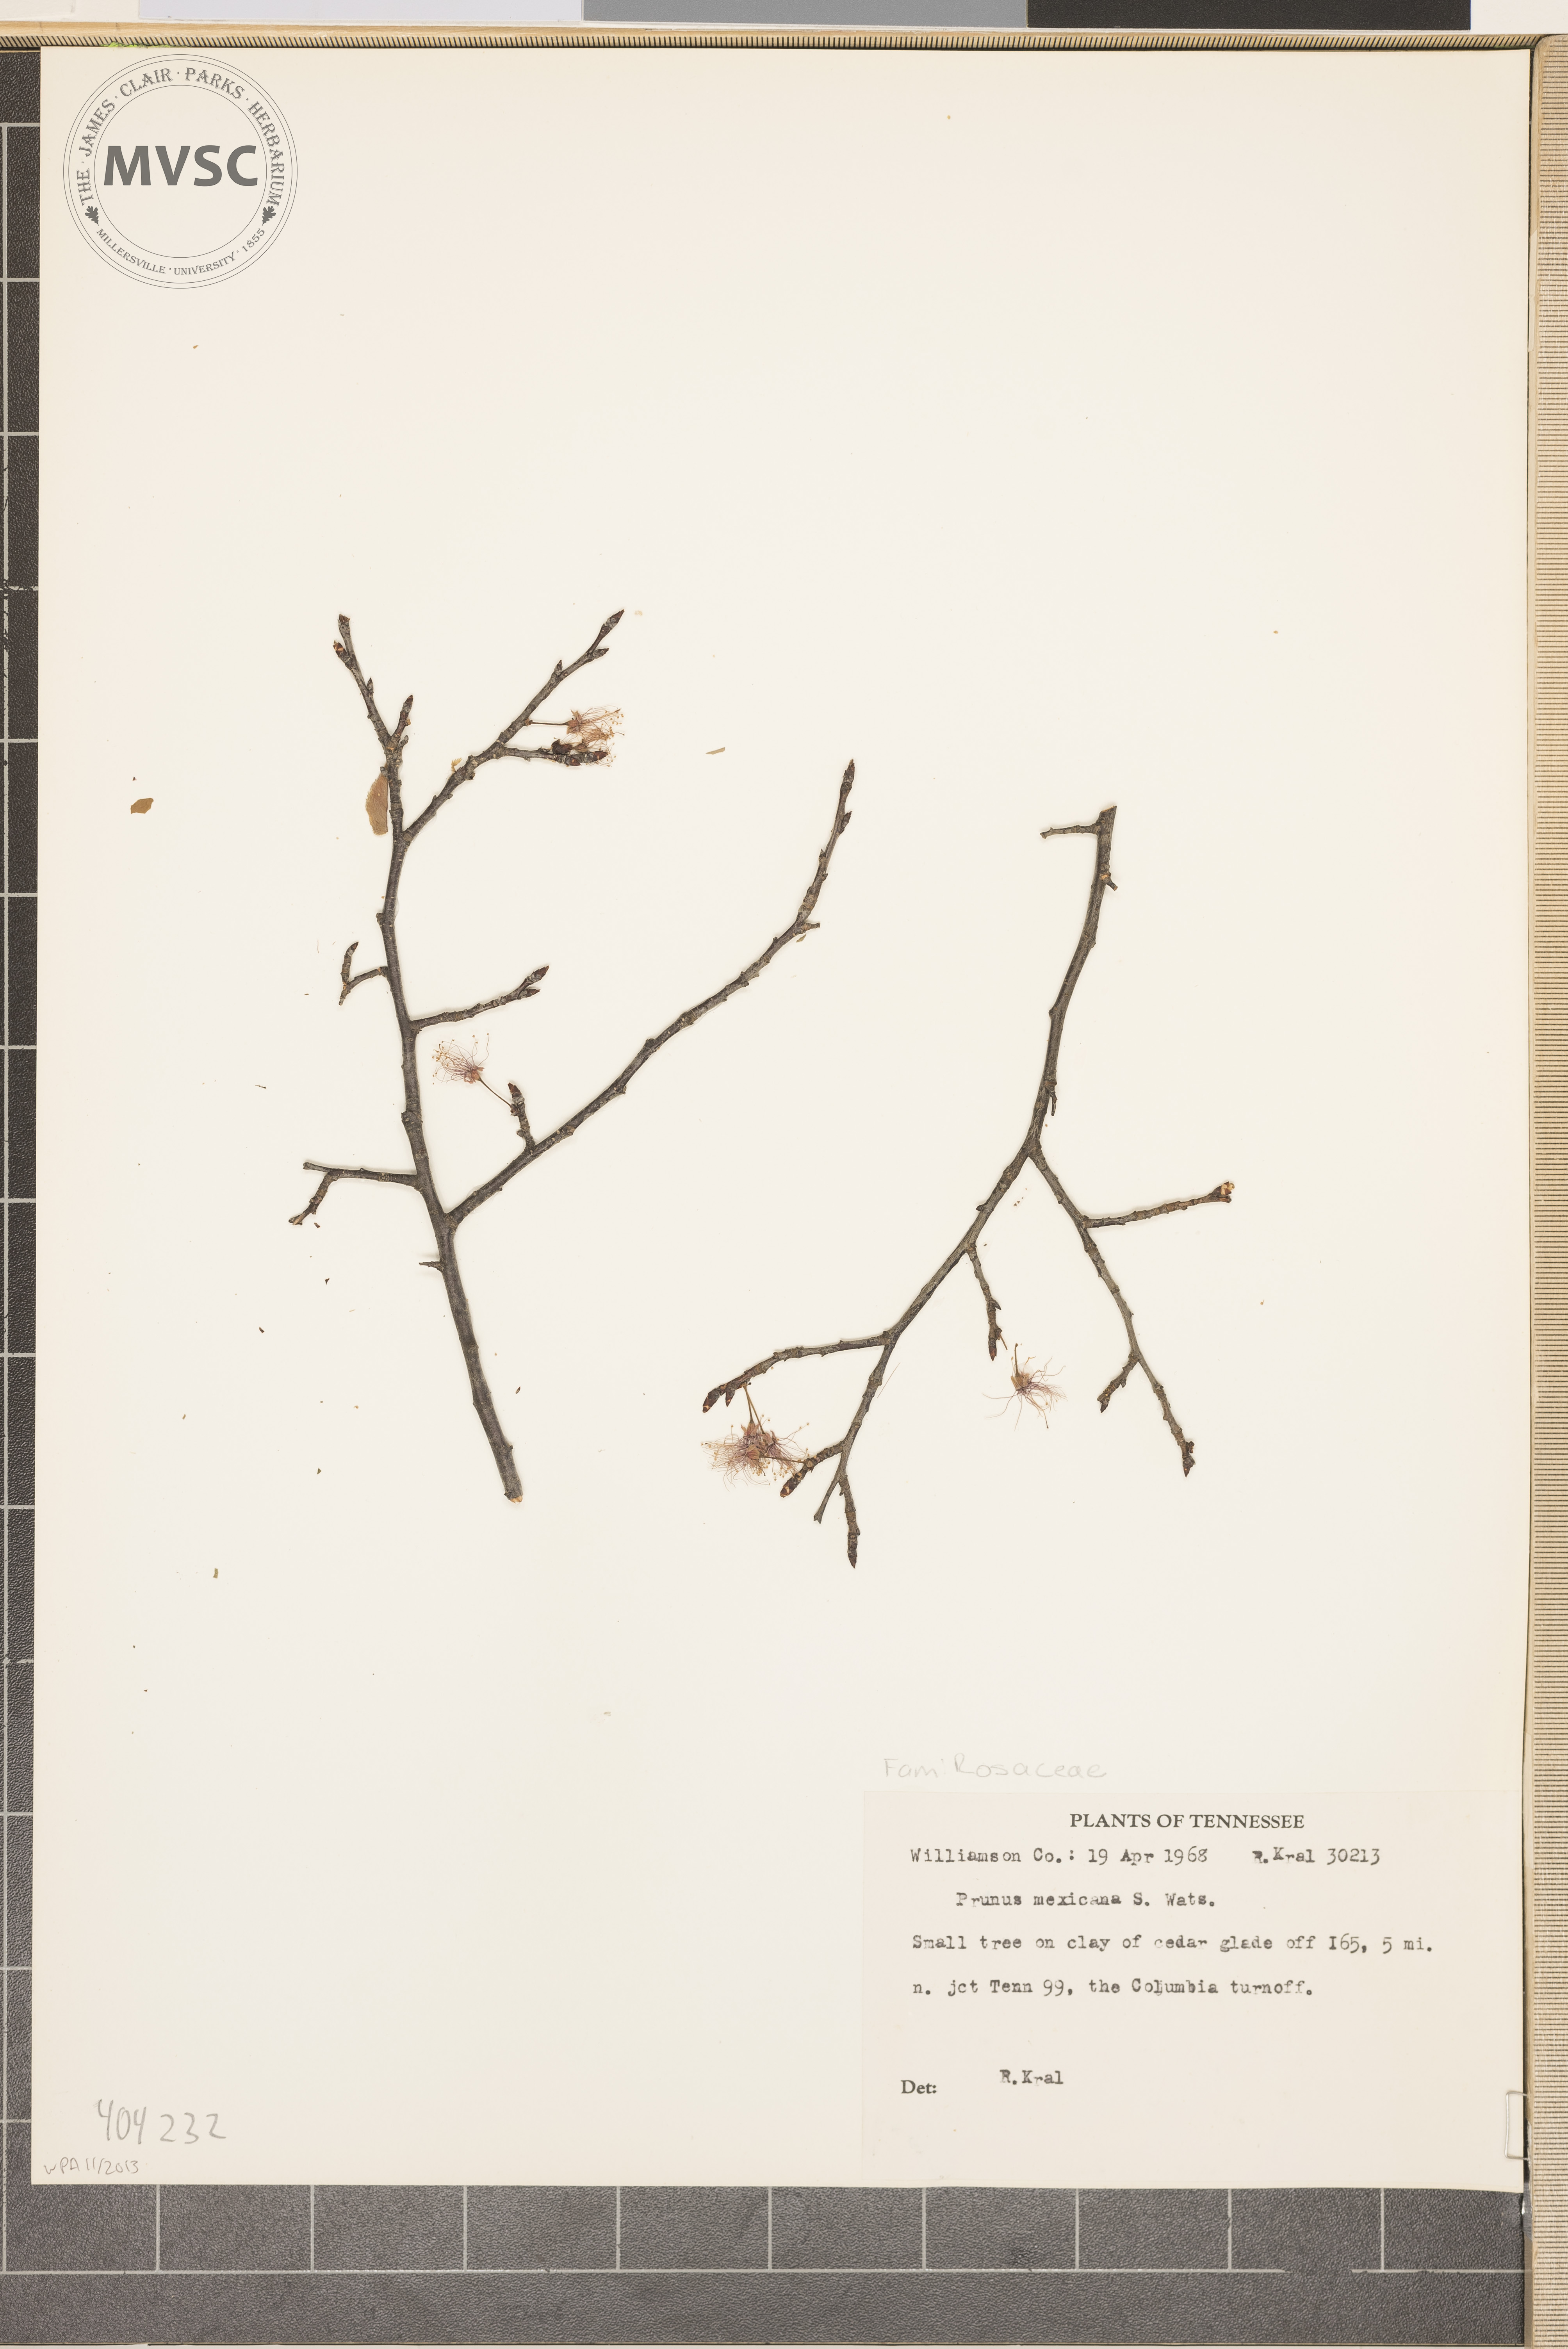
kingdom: Plantae
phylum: Tracheophyta
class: Magnoliopsida
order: Rosales
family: Rosaceae
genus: Prunus
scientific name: Prunus mexicana
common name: Mexican plum
